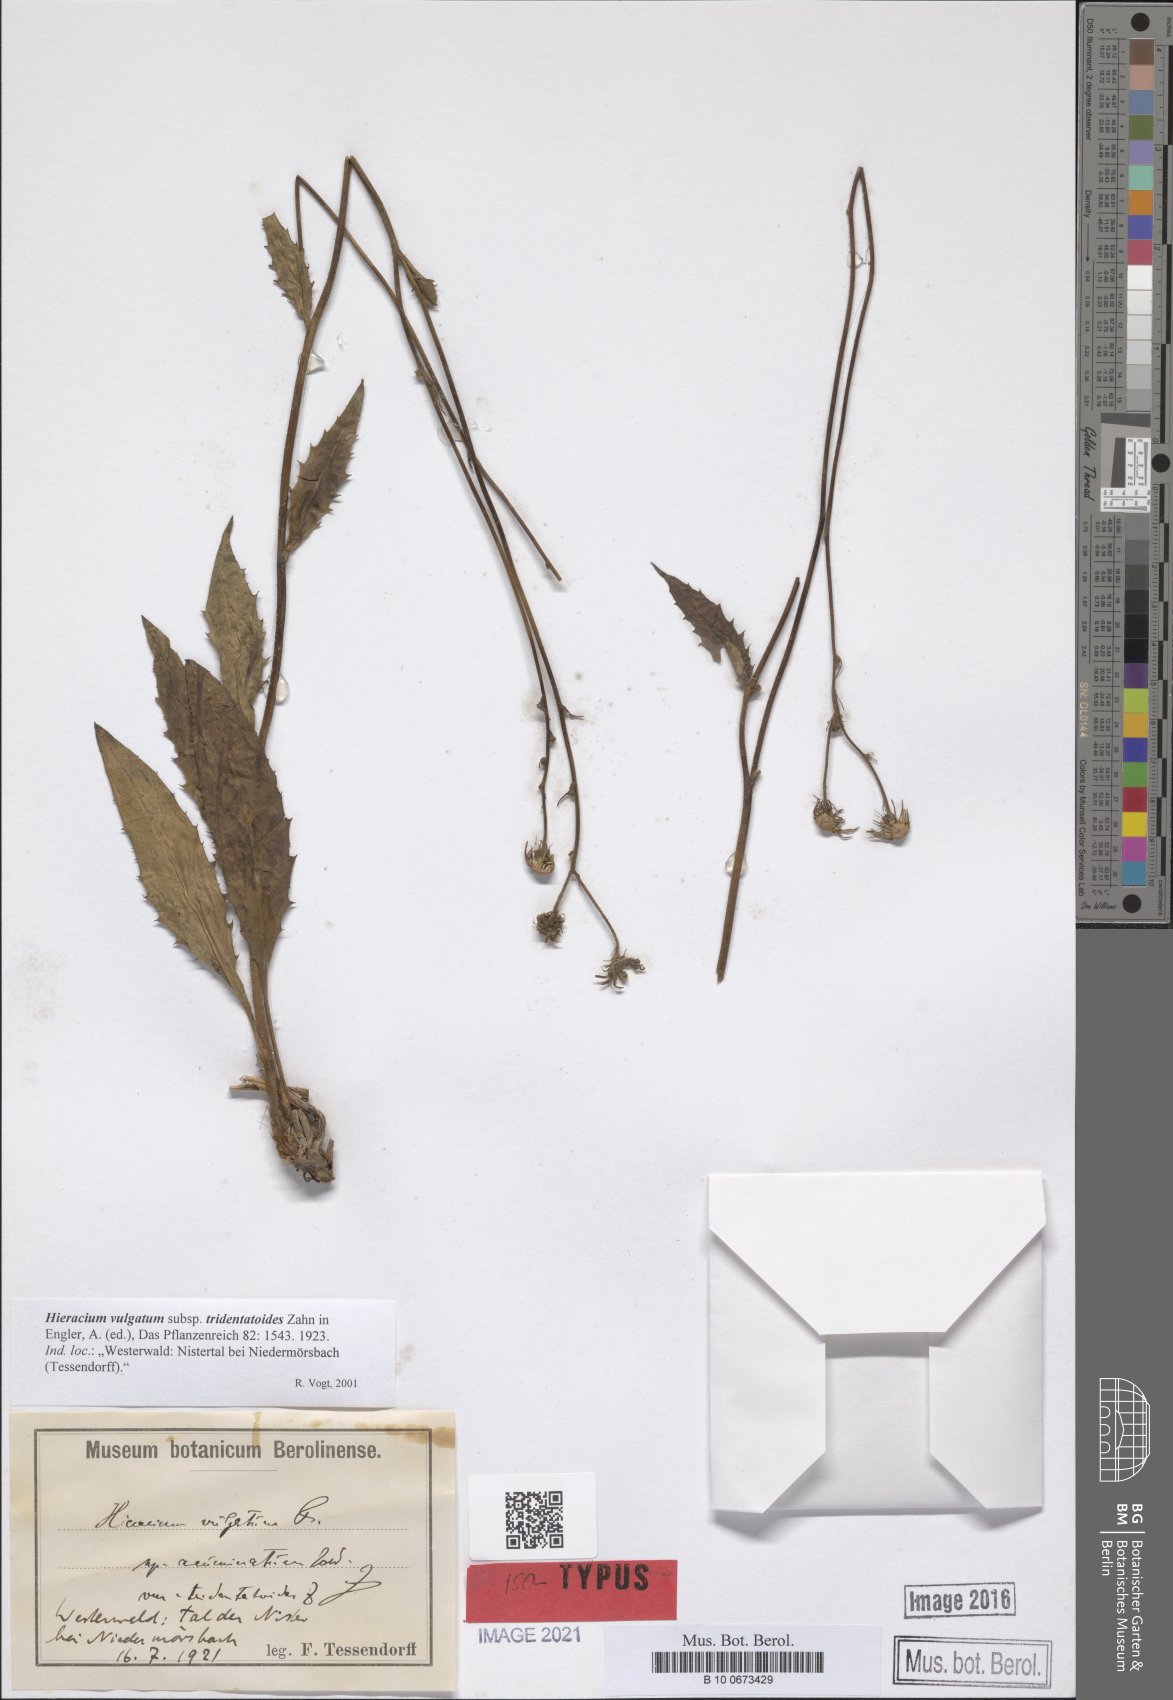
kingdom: Plantae
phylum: Tracheophyta
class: Magnoliopsida
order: Asterales
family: Asteraceae
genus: Hieracium
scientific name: Hieracium lachenalii
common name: Common hawkweed
